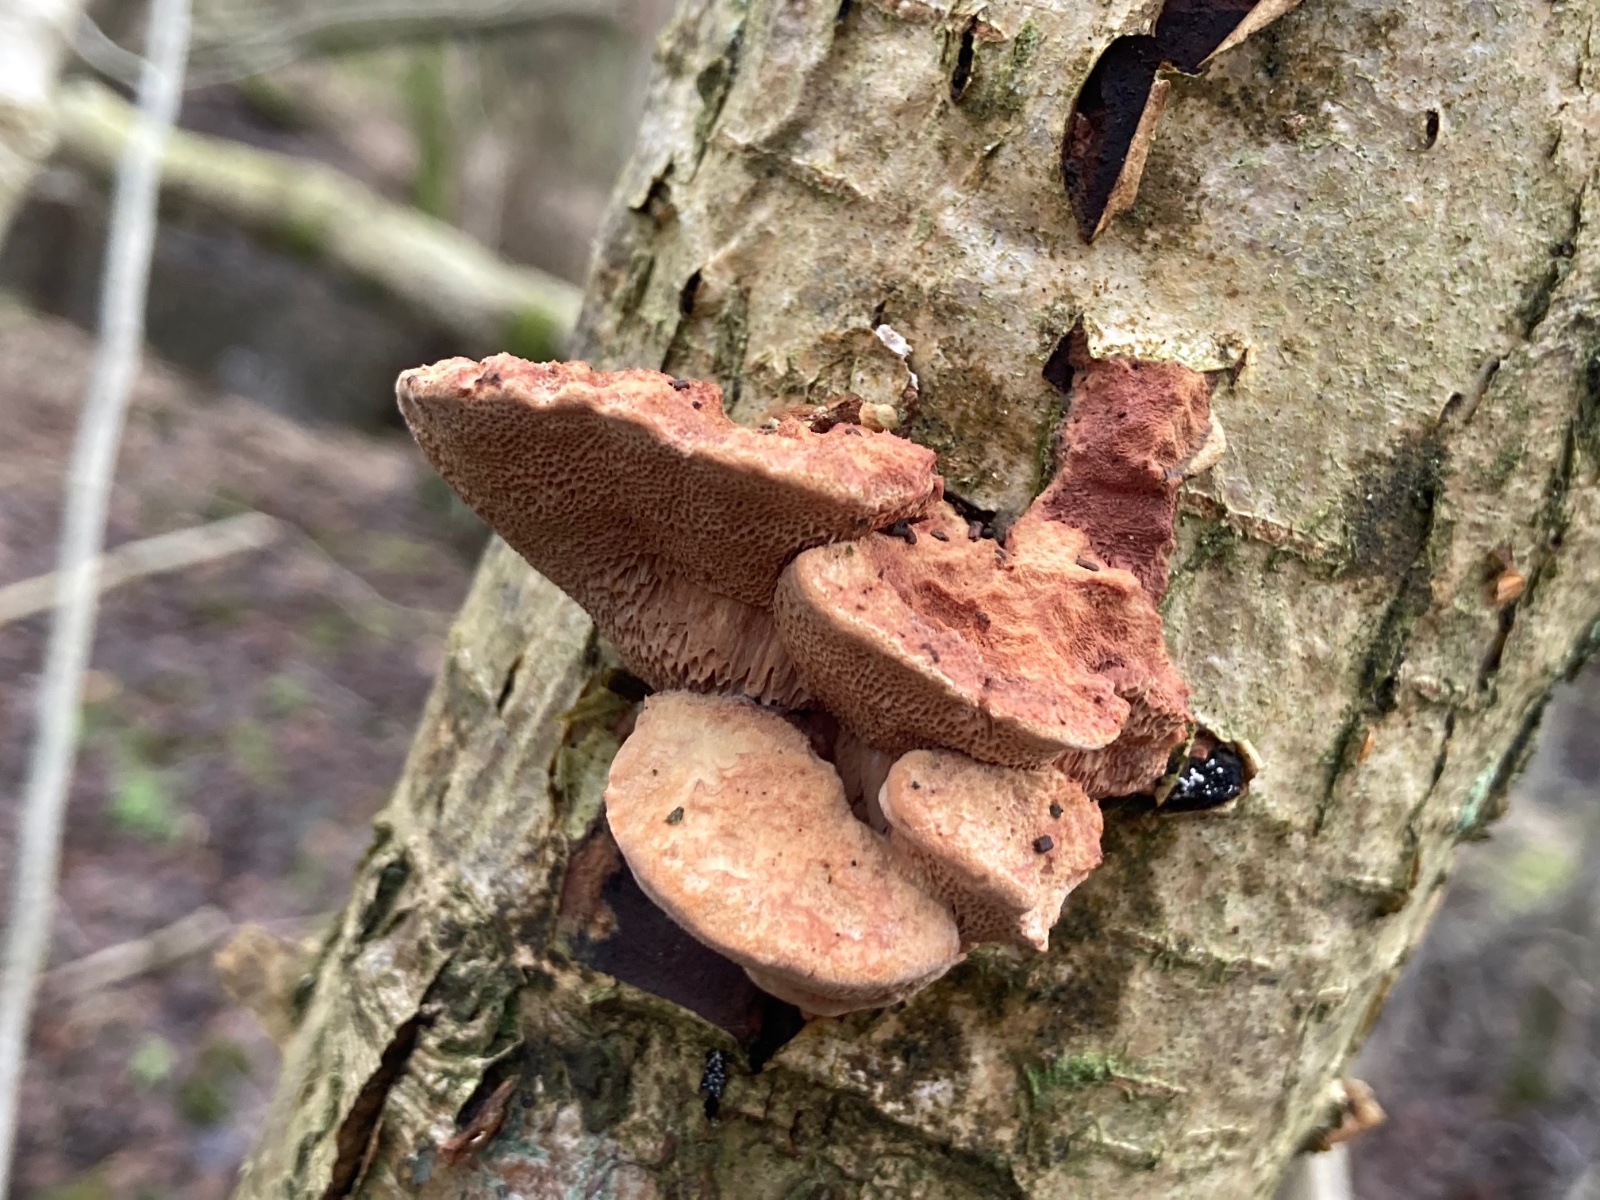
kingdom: Fungi
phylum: Basidiomycota
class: Agaricomycetes
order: Polyporales
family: Phanerochaetaceae
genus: Hapalopilus
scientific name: Hapalopilus rutilans
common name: rødlig okkerporesvamp
